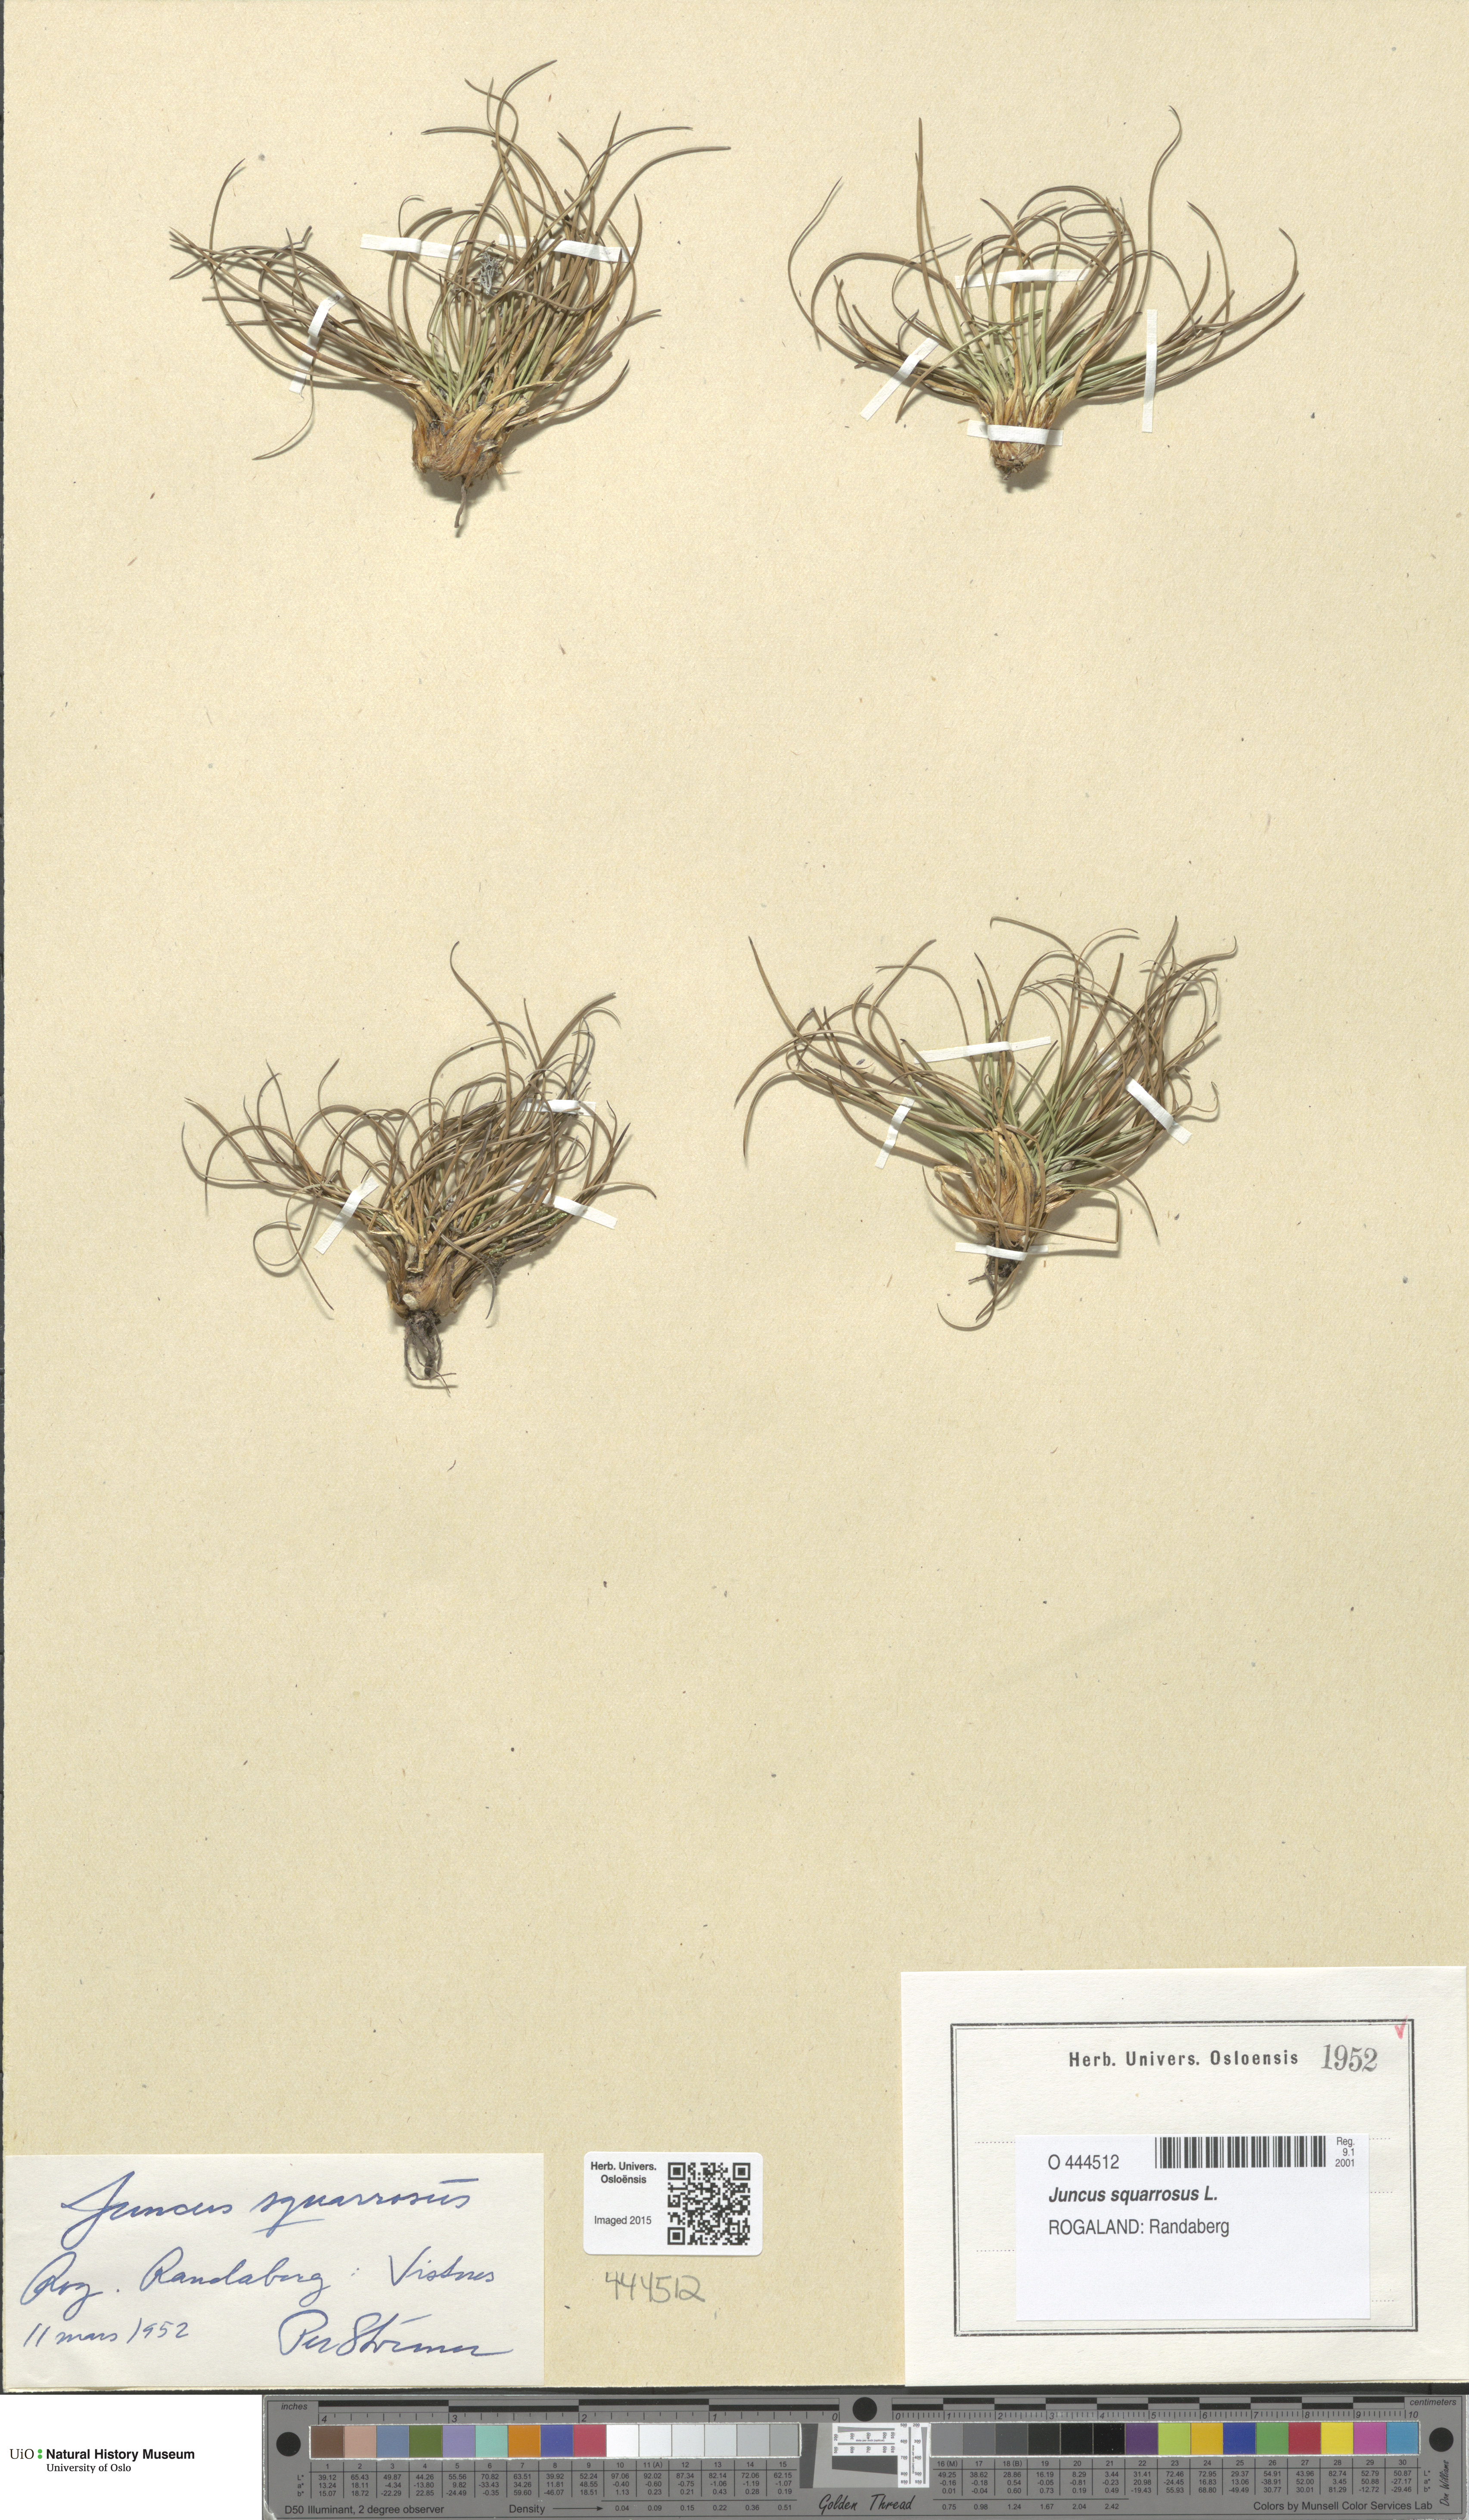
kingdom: Plantae
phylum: Tracheophyta
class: Liliopsida
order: Poales
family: Juncaceae
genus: Juncus
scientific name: Juncus squarrosus
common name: Heath rush
